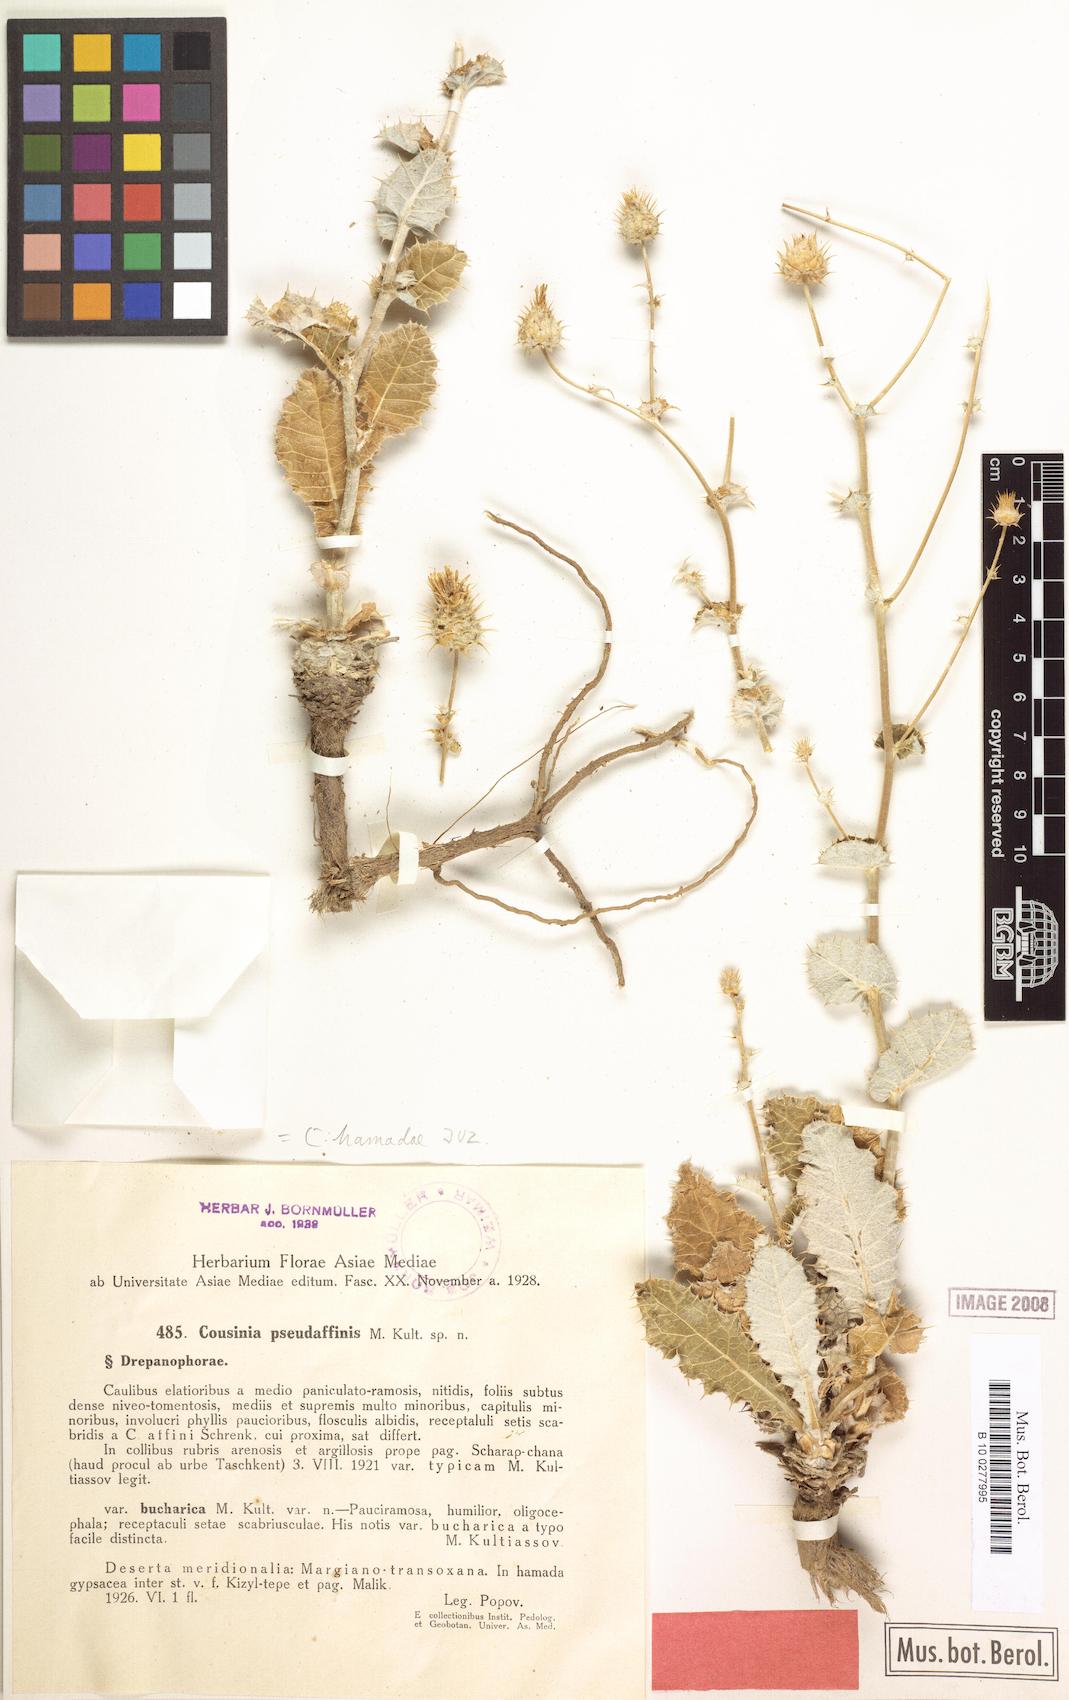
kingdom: Plantae
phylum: Tracheophyta
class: Magnoliopsida
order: Asterales
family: Asteraceae
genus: Cousinia
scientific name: Cousinia hamadae
